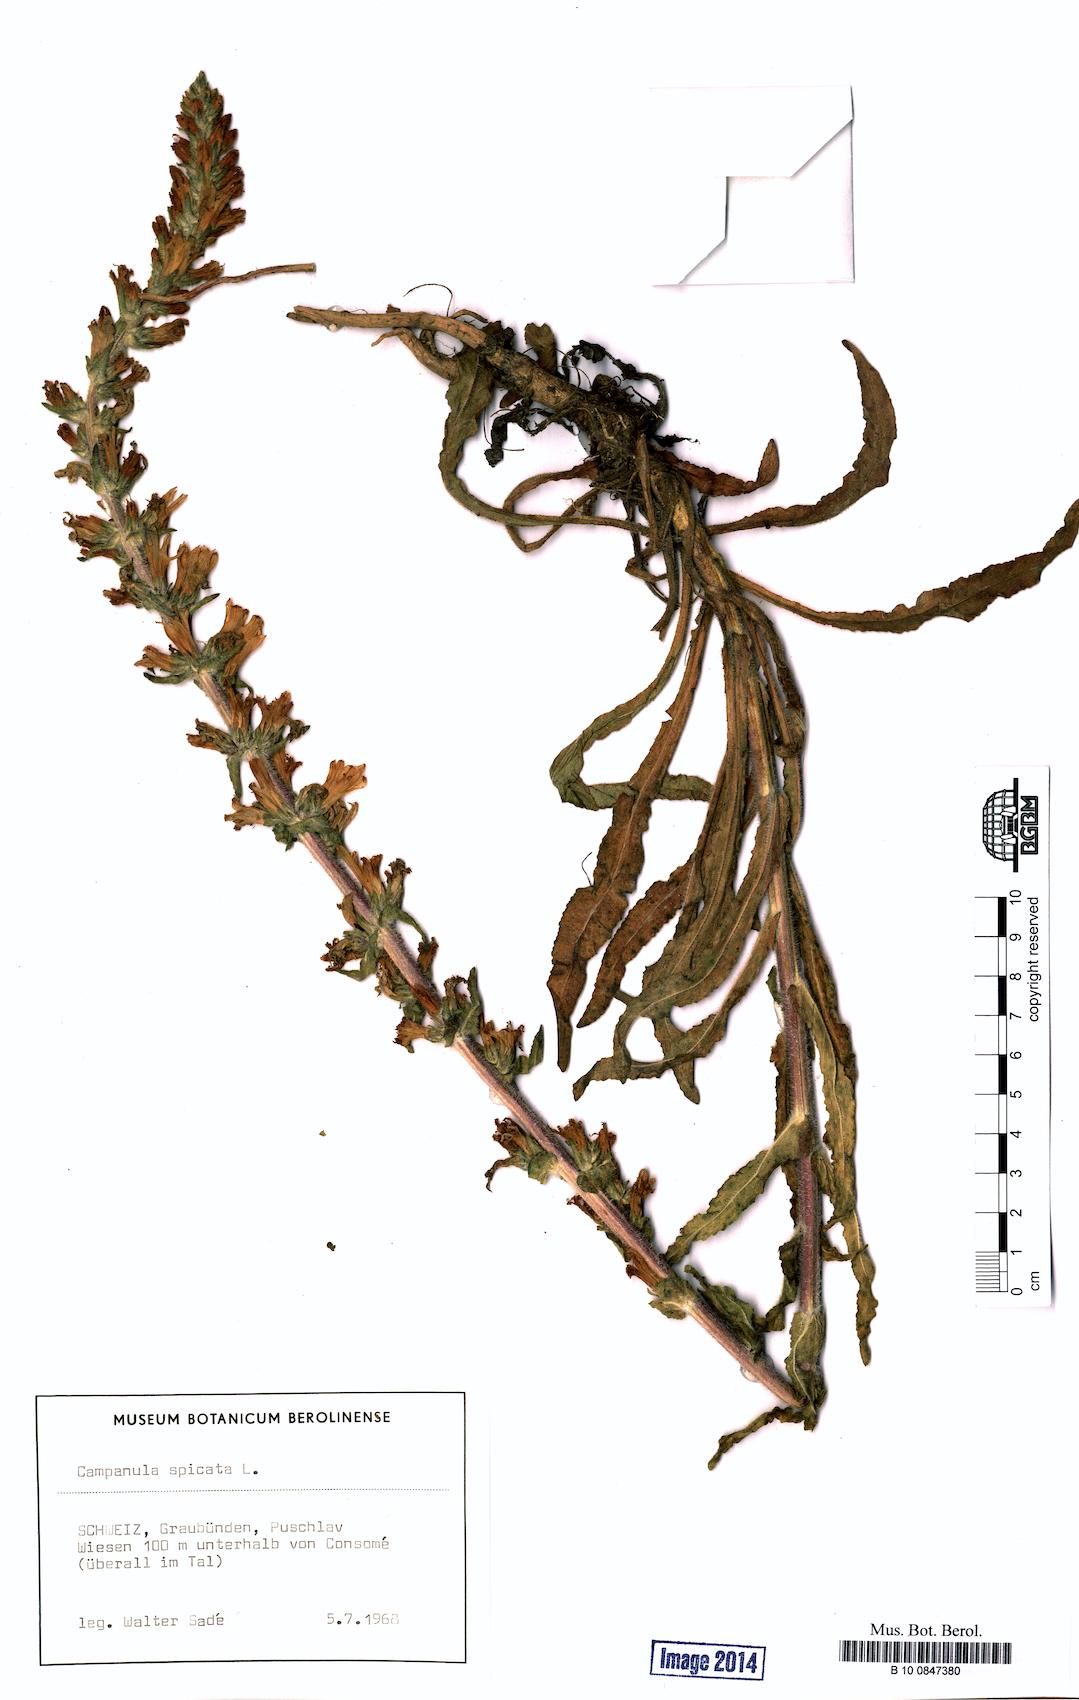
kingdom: Plantae
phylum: Tracheophyta
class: Magnoliopsida
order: Asterales
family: Campanulaceae
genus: Campanula
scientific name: Campanula spicata
